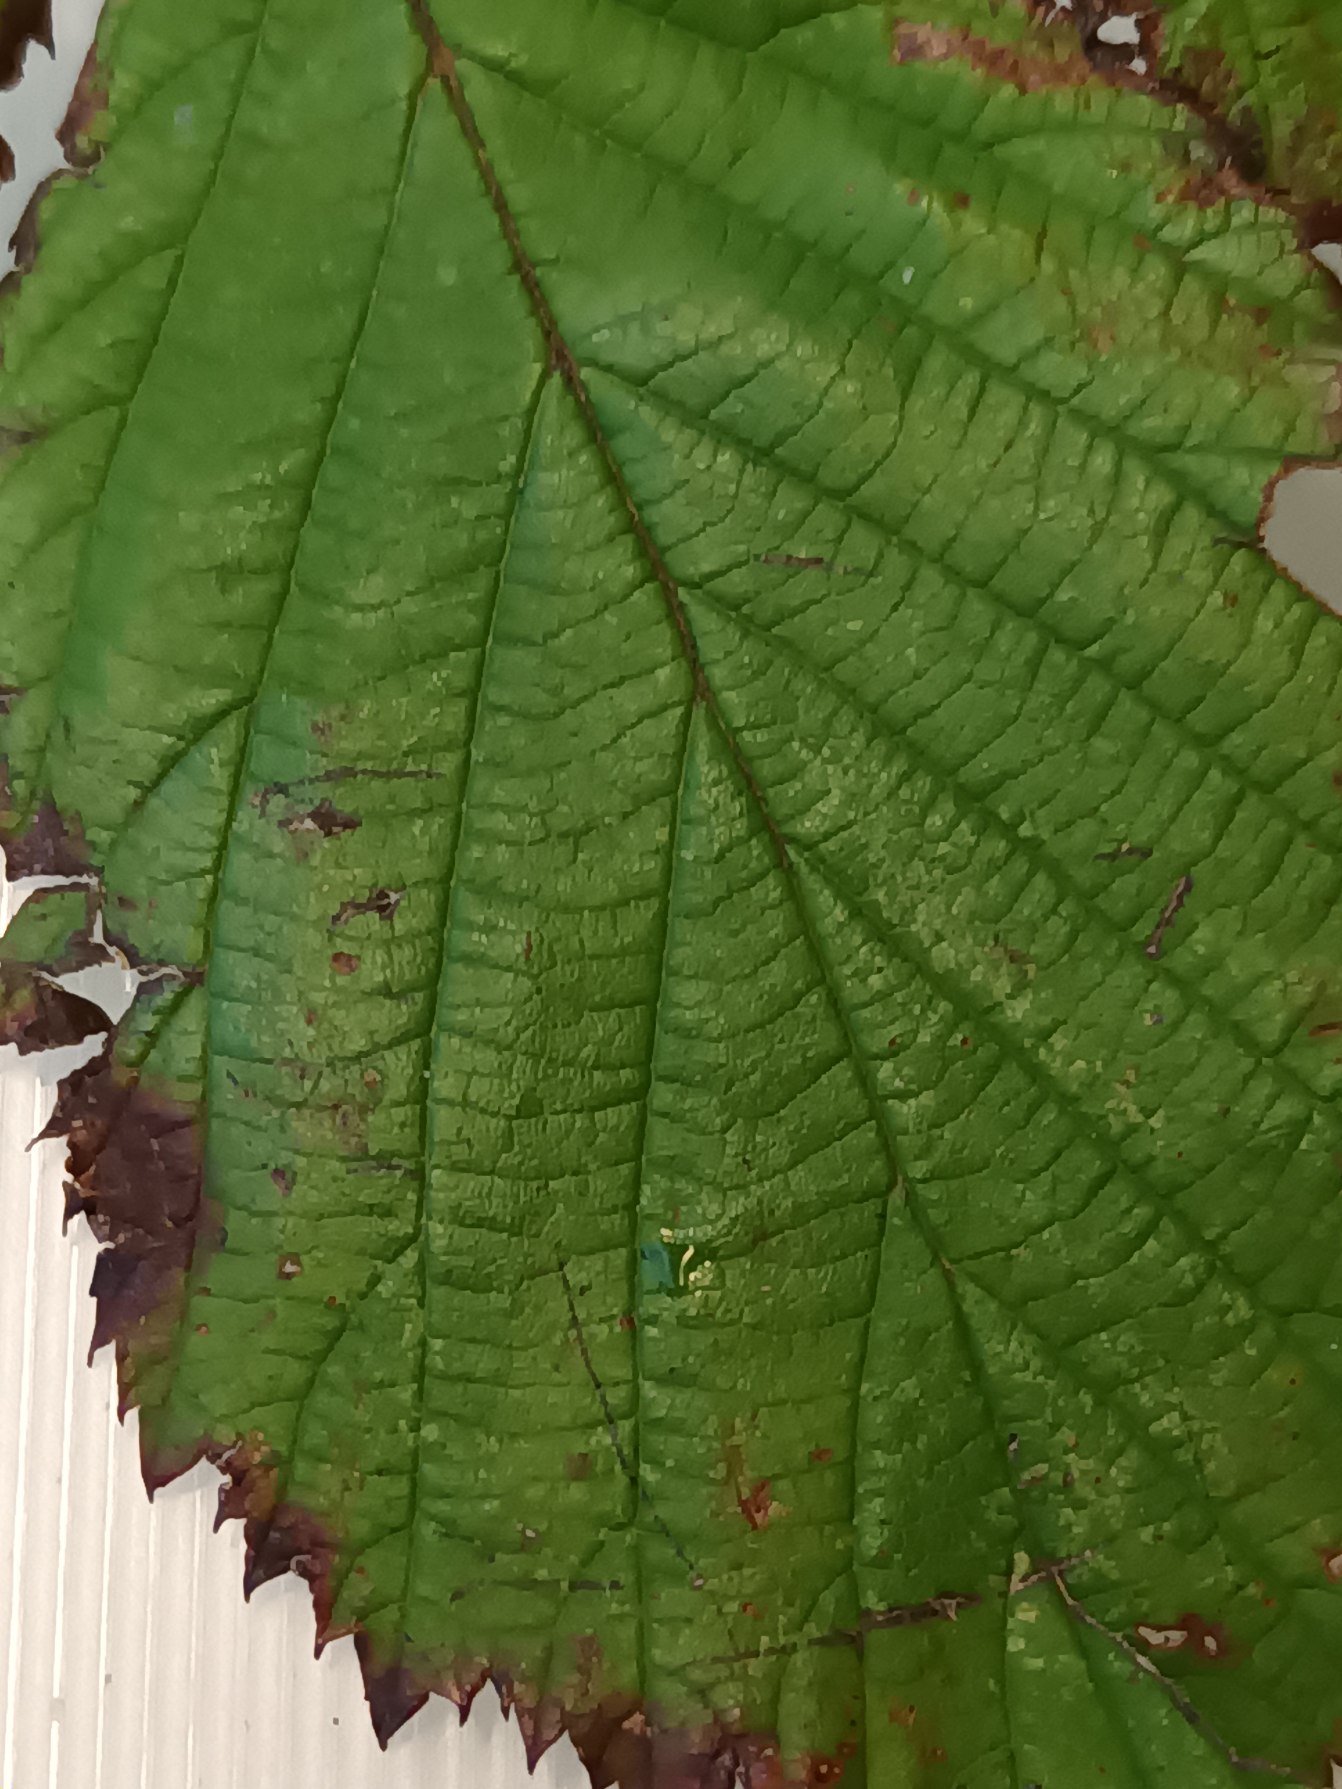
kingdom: Plantae
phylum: Tracheophyta
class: Magnoliopsida
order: Rosales
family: Rosaceae
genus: Rubus
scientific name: Rubus umbrosus
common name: Pyramide-brombær
